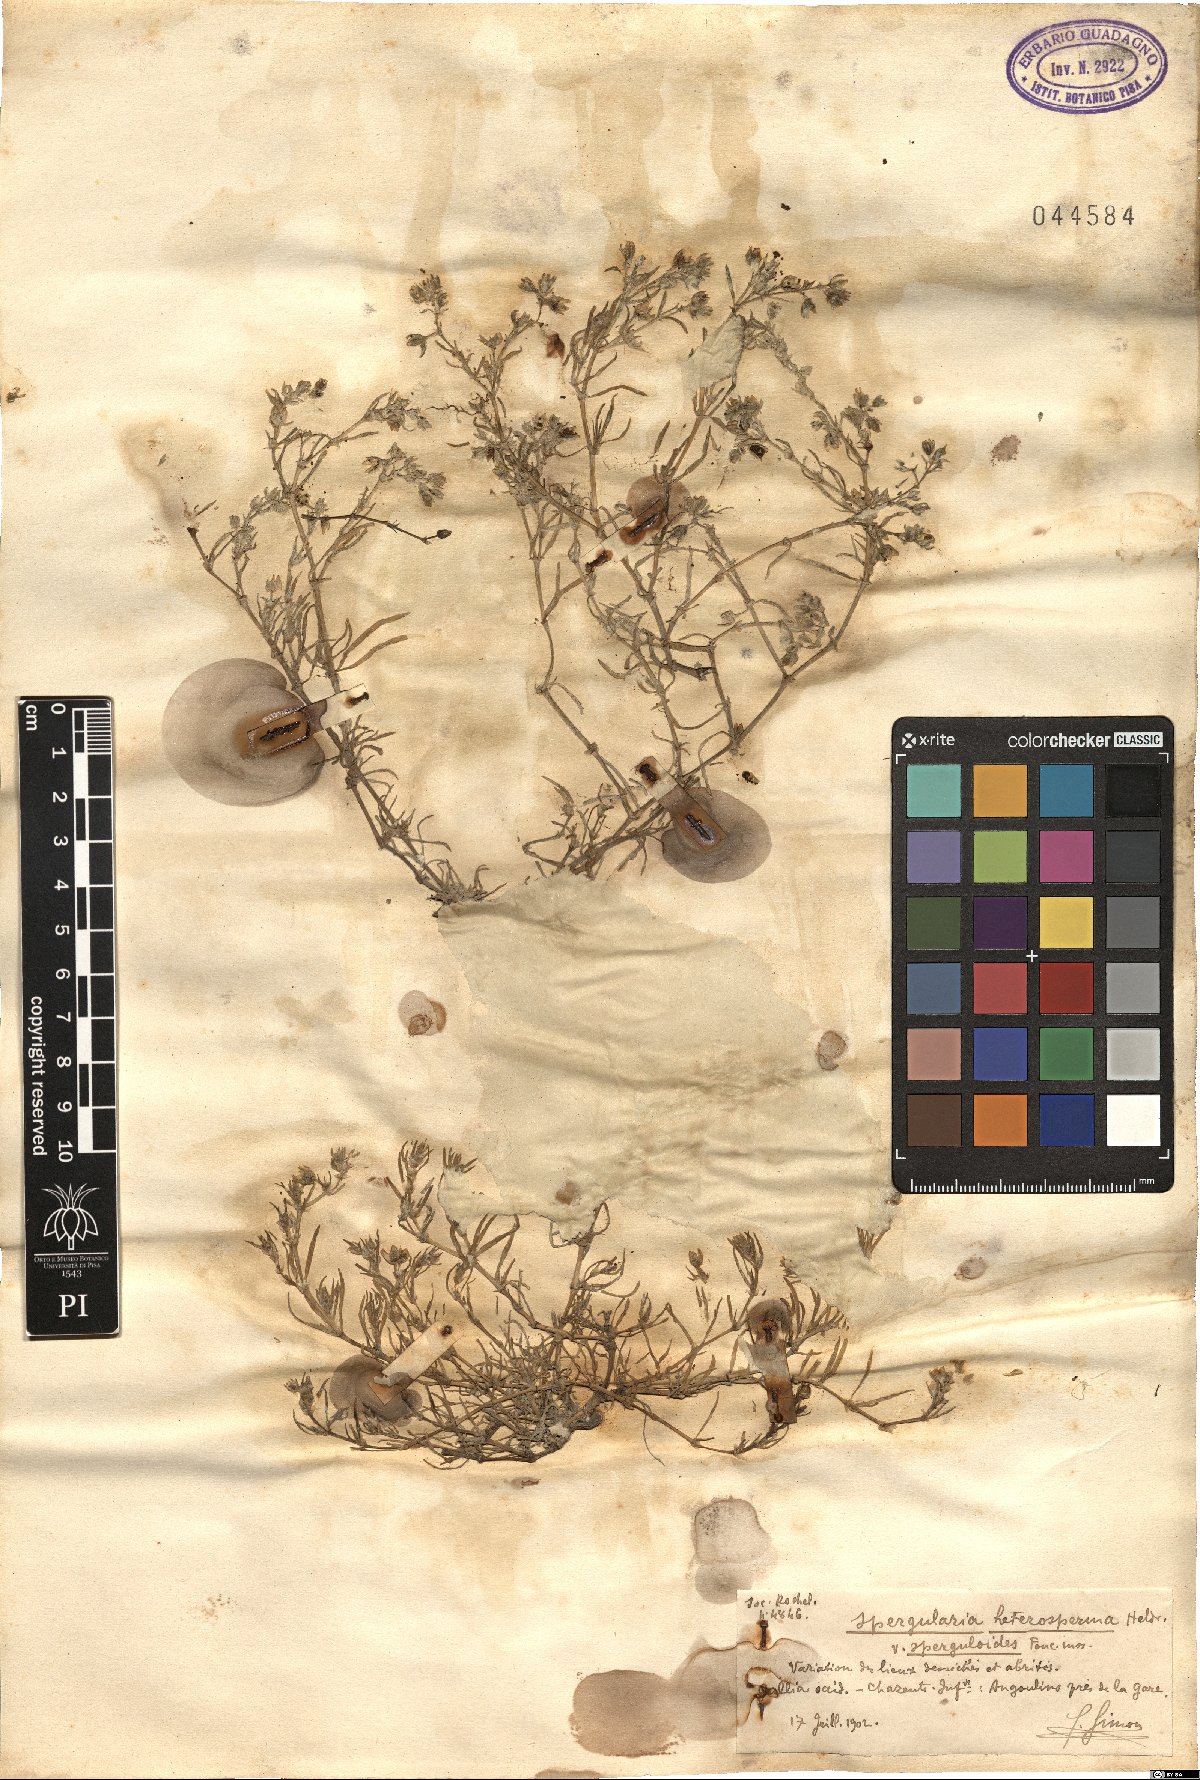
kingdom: Plantae
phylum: Tracheophyta
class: Magnoliopsida
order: Caryophyllales
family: Caryophyllaceae
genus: Spergularia
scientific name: Spergularia marina
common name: Lesser sea-spurrey
